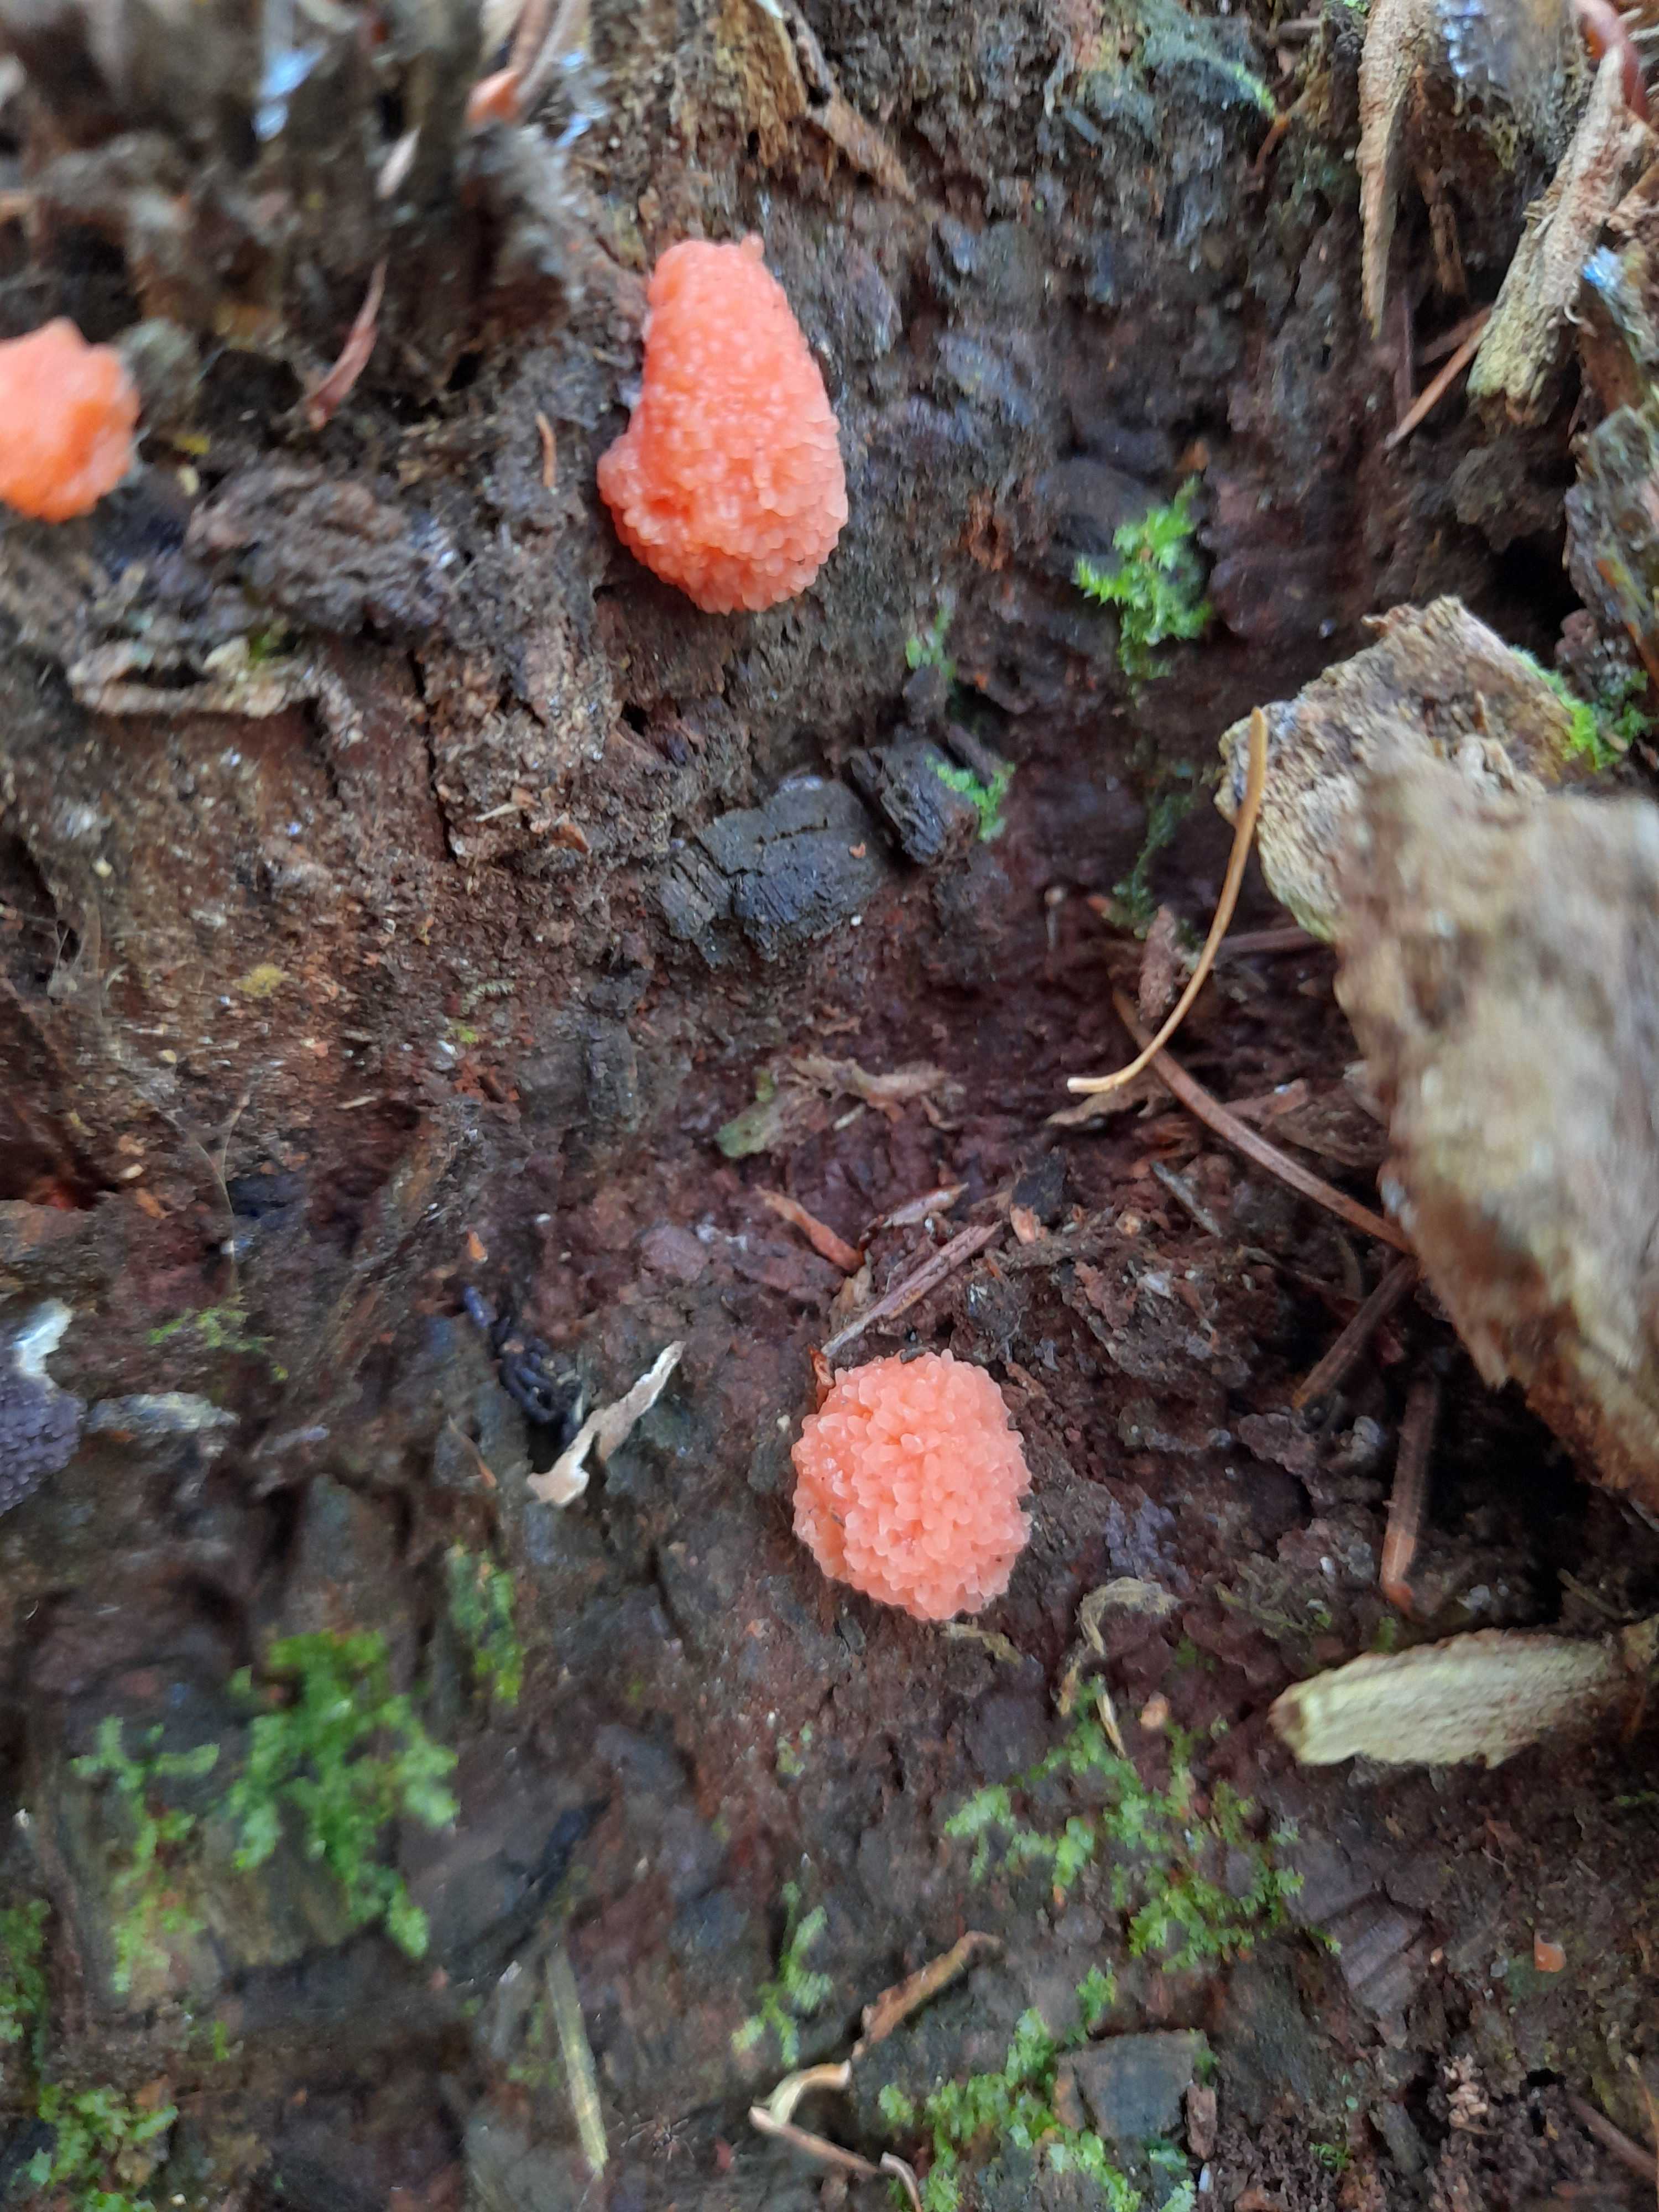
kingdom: Protozoa
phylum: Mycetozoa
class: Myxomycetes
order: Cribrariales
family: Tubiferaceae
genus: Tubifera
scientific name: Tubifera ferruginosa
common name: kanel-støvrør
